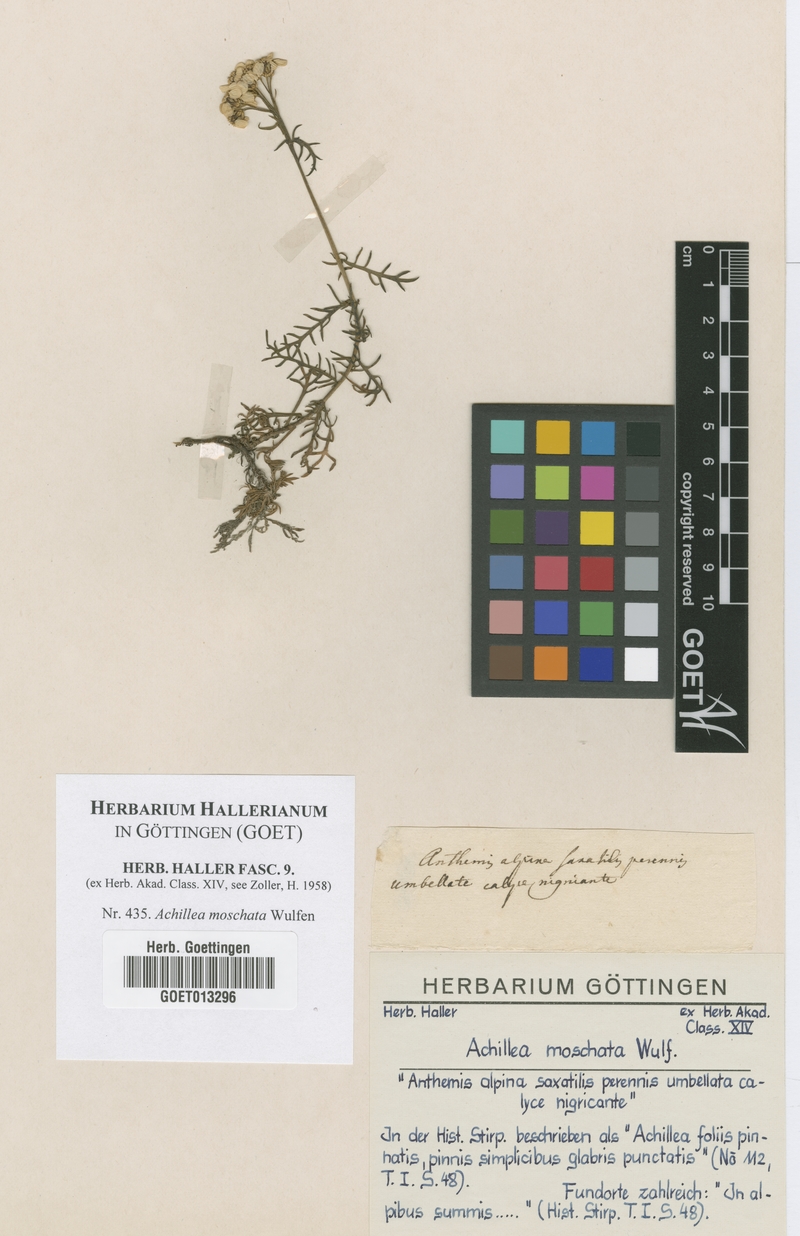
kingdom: Plantae
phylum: Tracheophyta
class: Magnoliopsida
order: Asterales
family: Asteraceae
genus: Achillea
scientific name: Achillea erba-rotta
